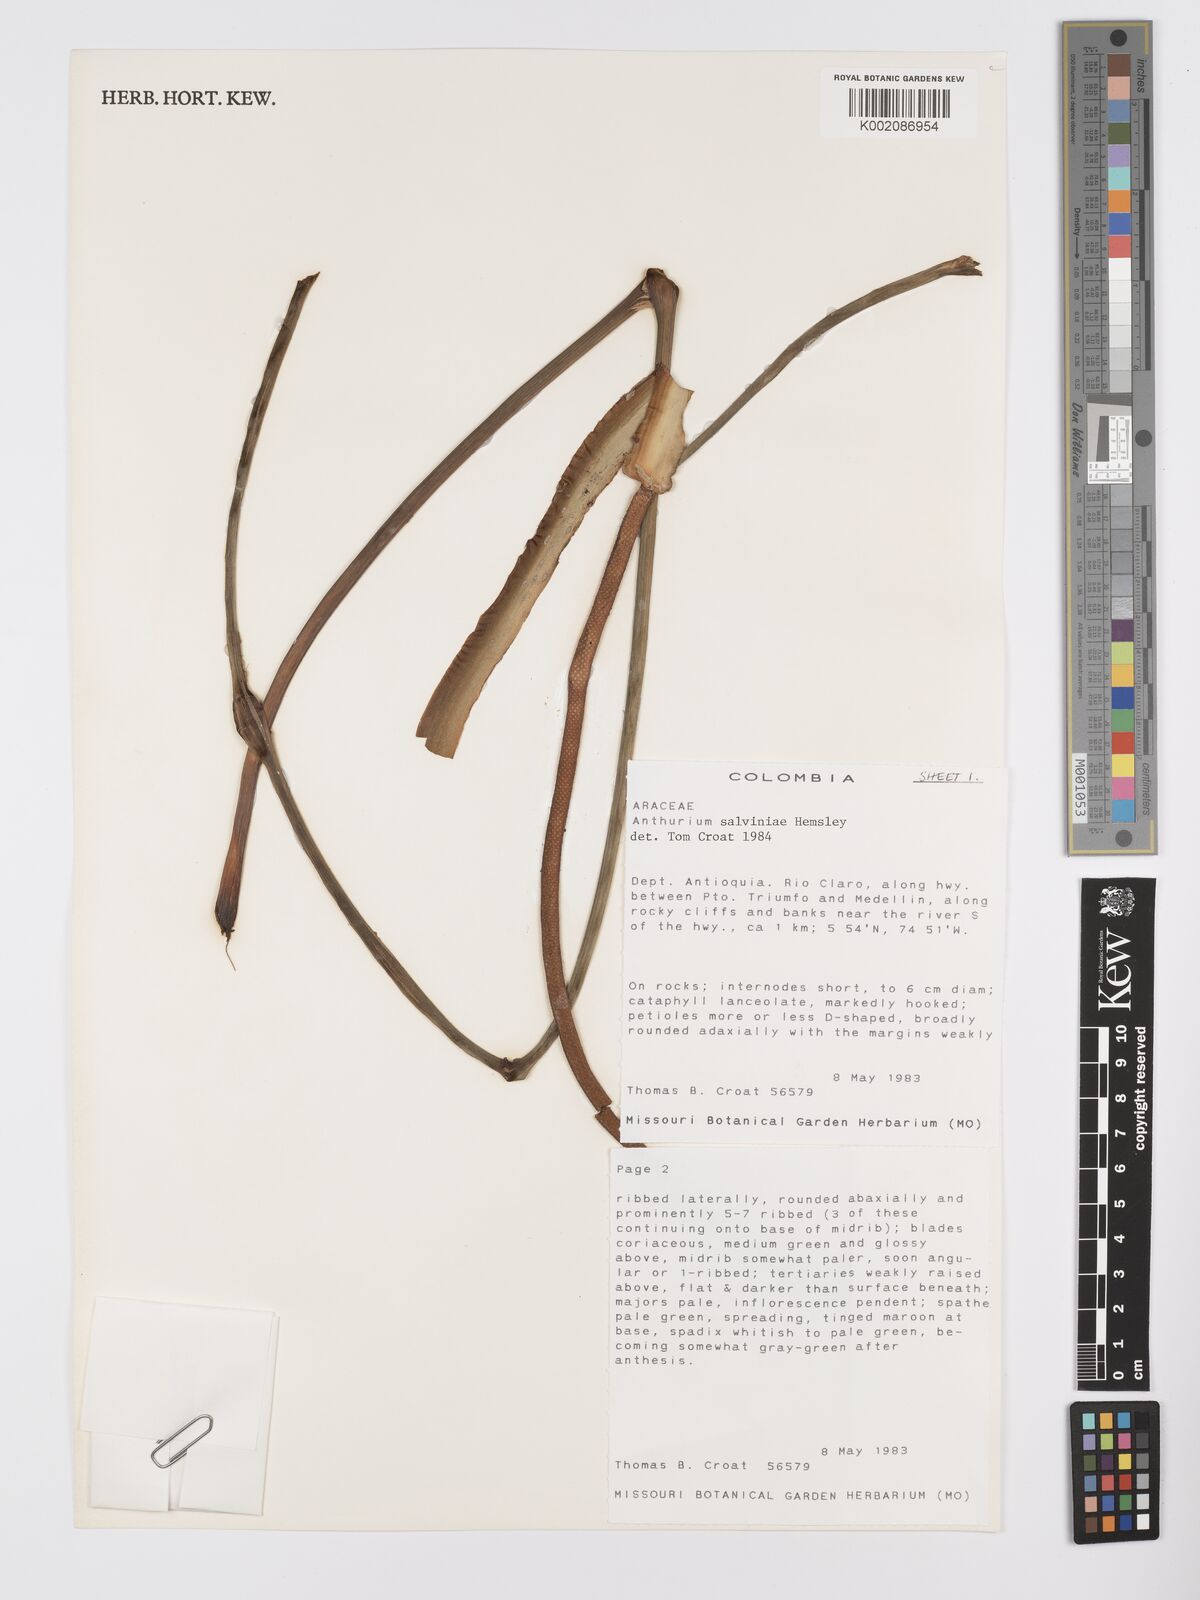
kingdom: Plantae
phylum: Tracheophyta
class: Liliopsida
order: Alismatales
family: Araceae
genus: Anthurium
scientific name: Anthurium salvinii
